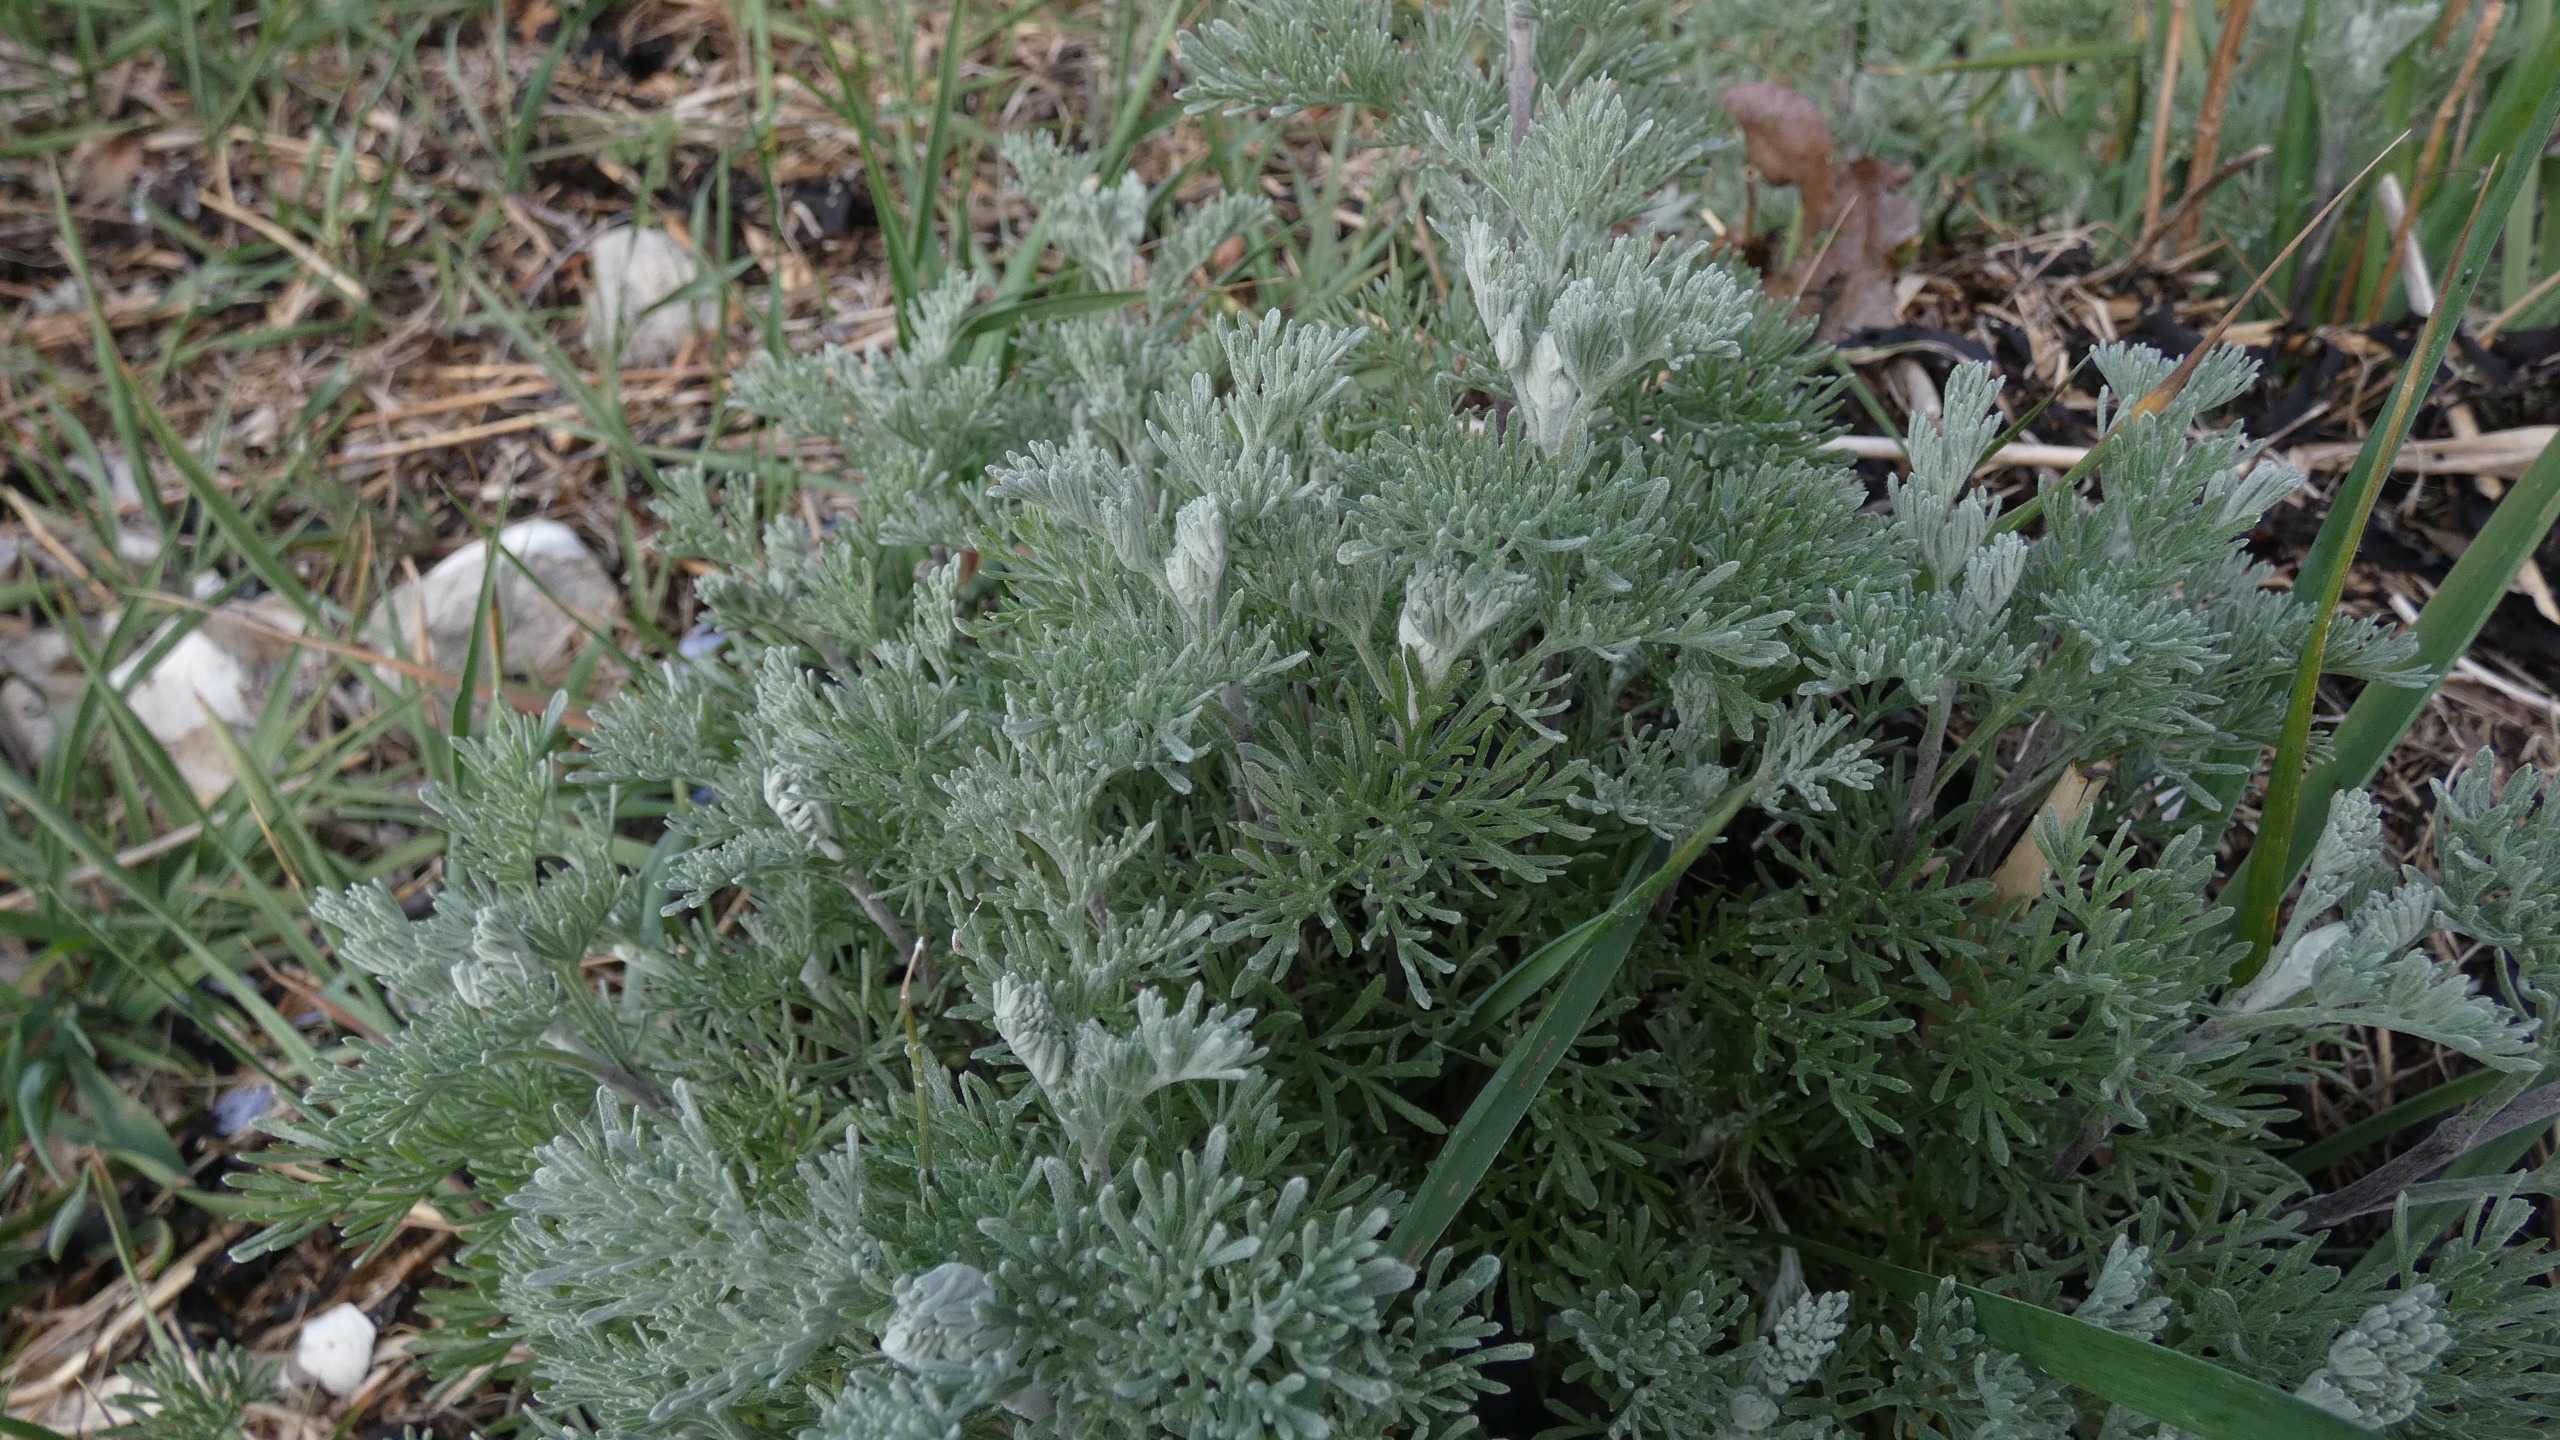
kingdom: Plantae
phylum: Tracheophyta
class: Magnoliopsida
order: Asterales
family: Asteraceae
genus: Artemisia
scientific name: Artemisia maritima
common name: Strandmalurt
